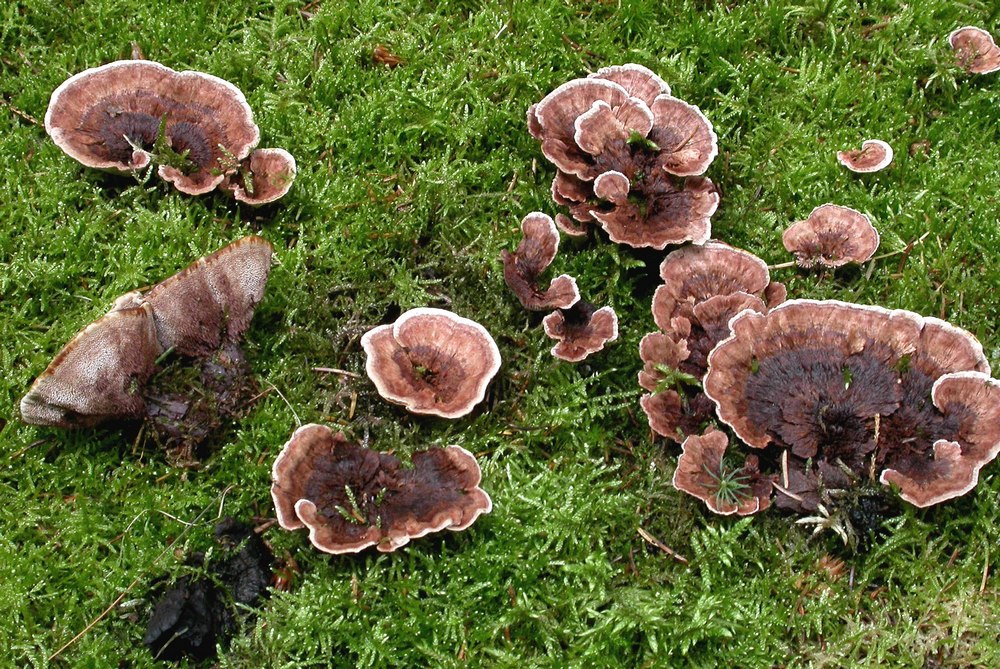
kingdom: Fungi
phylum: Basidiomycota
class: Agaricomycetes
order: Thelephorales
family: Bankeraceae
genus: Hydnellum
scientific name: Hydnellum concrescens
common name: bæltet korkpigsvamp
